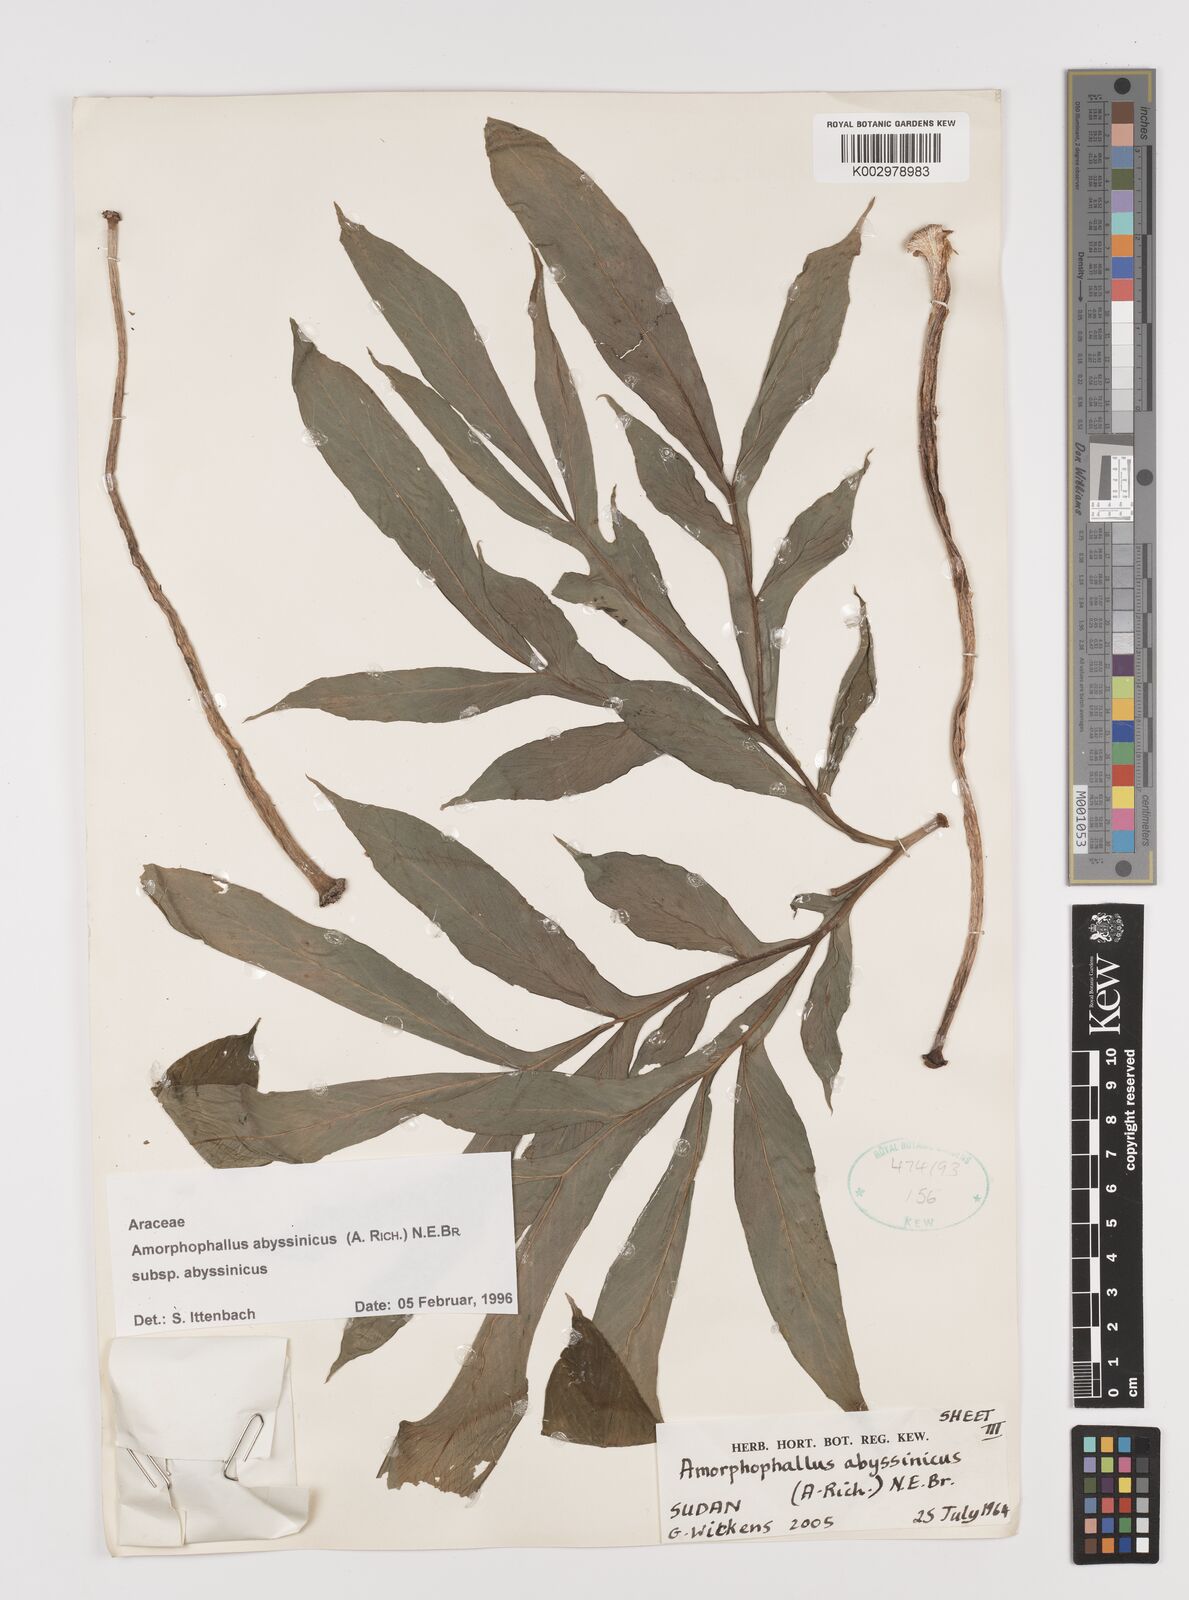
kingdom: Plantae
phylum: Tracheophyta
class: Liliopsida
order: Alismatales
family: Araceae
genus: Amorphophallus
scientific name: Amorphophallus abyssinicus
